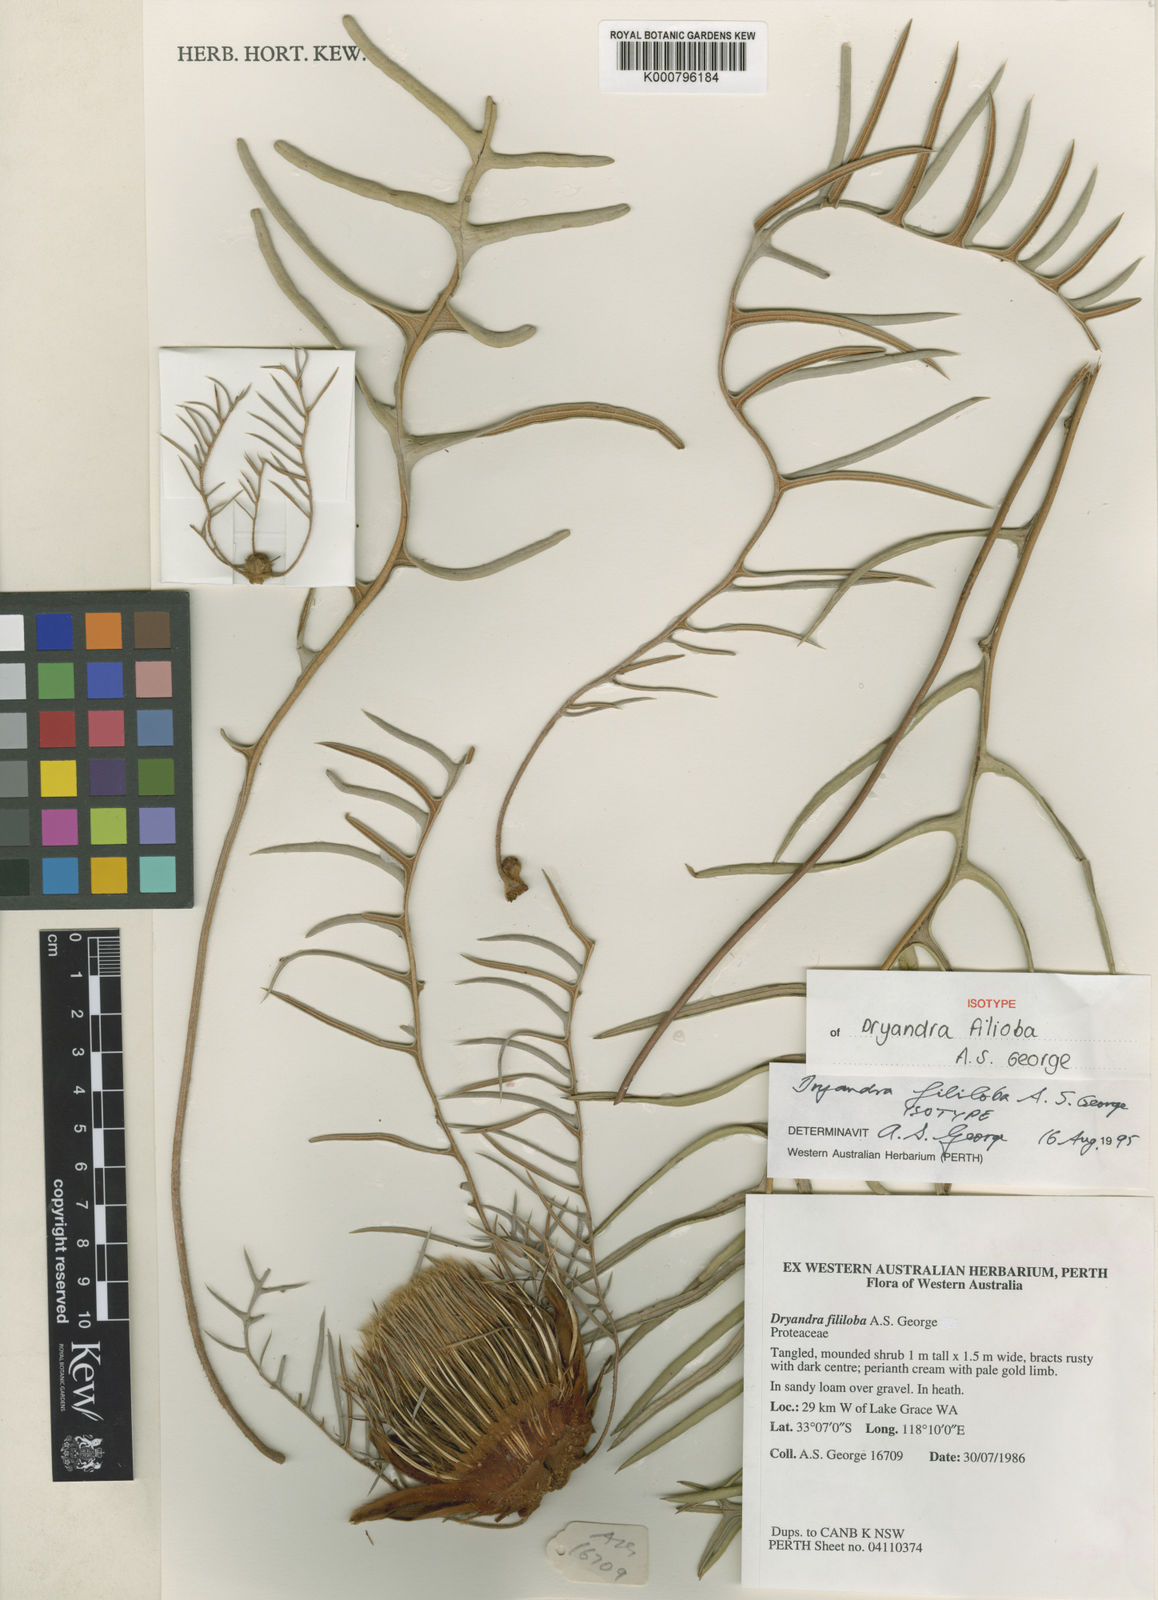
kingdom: Plantae
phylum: Tracheophyta
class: Magnoliopsida
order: Proteales
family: Proteaceae
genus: Banksia
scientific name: Banksia fililoba
